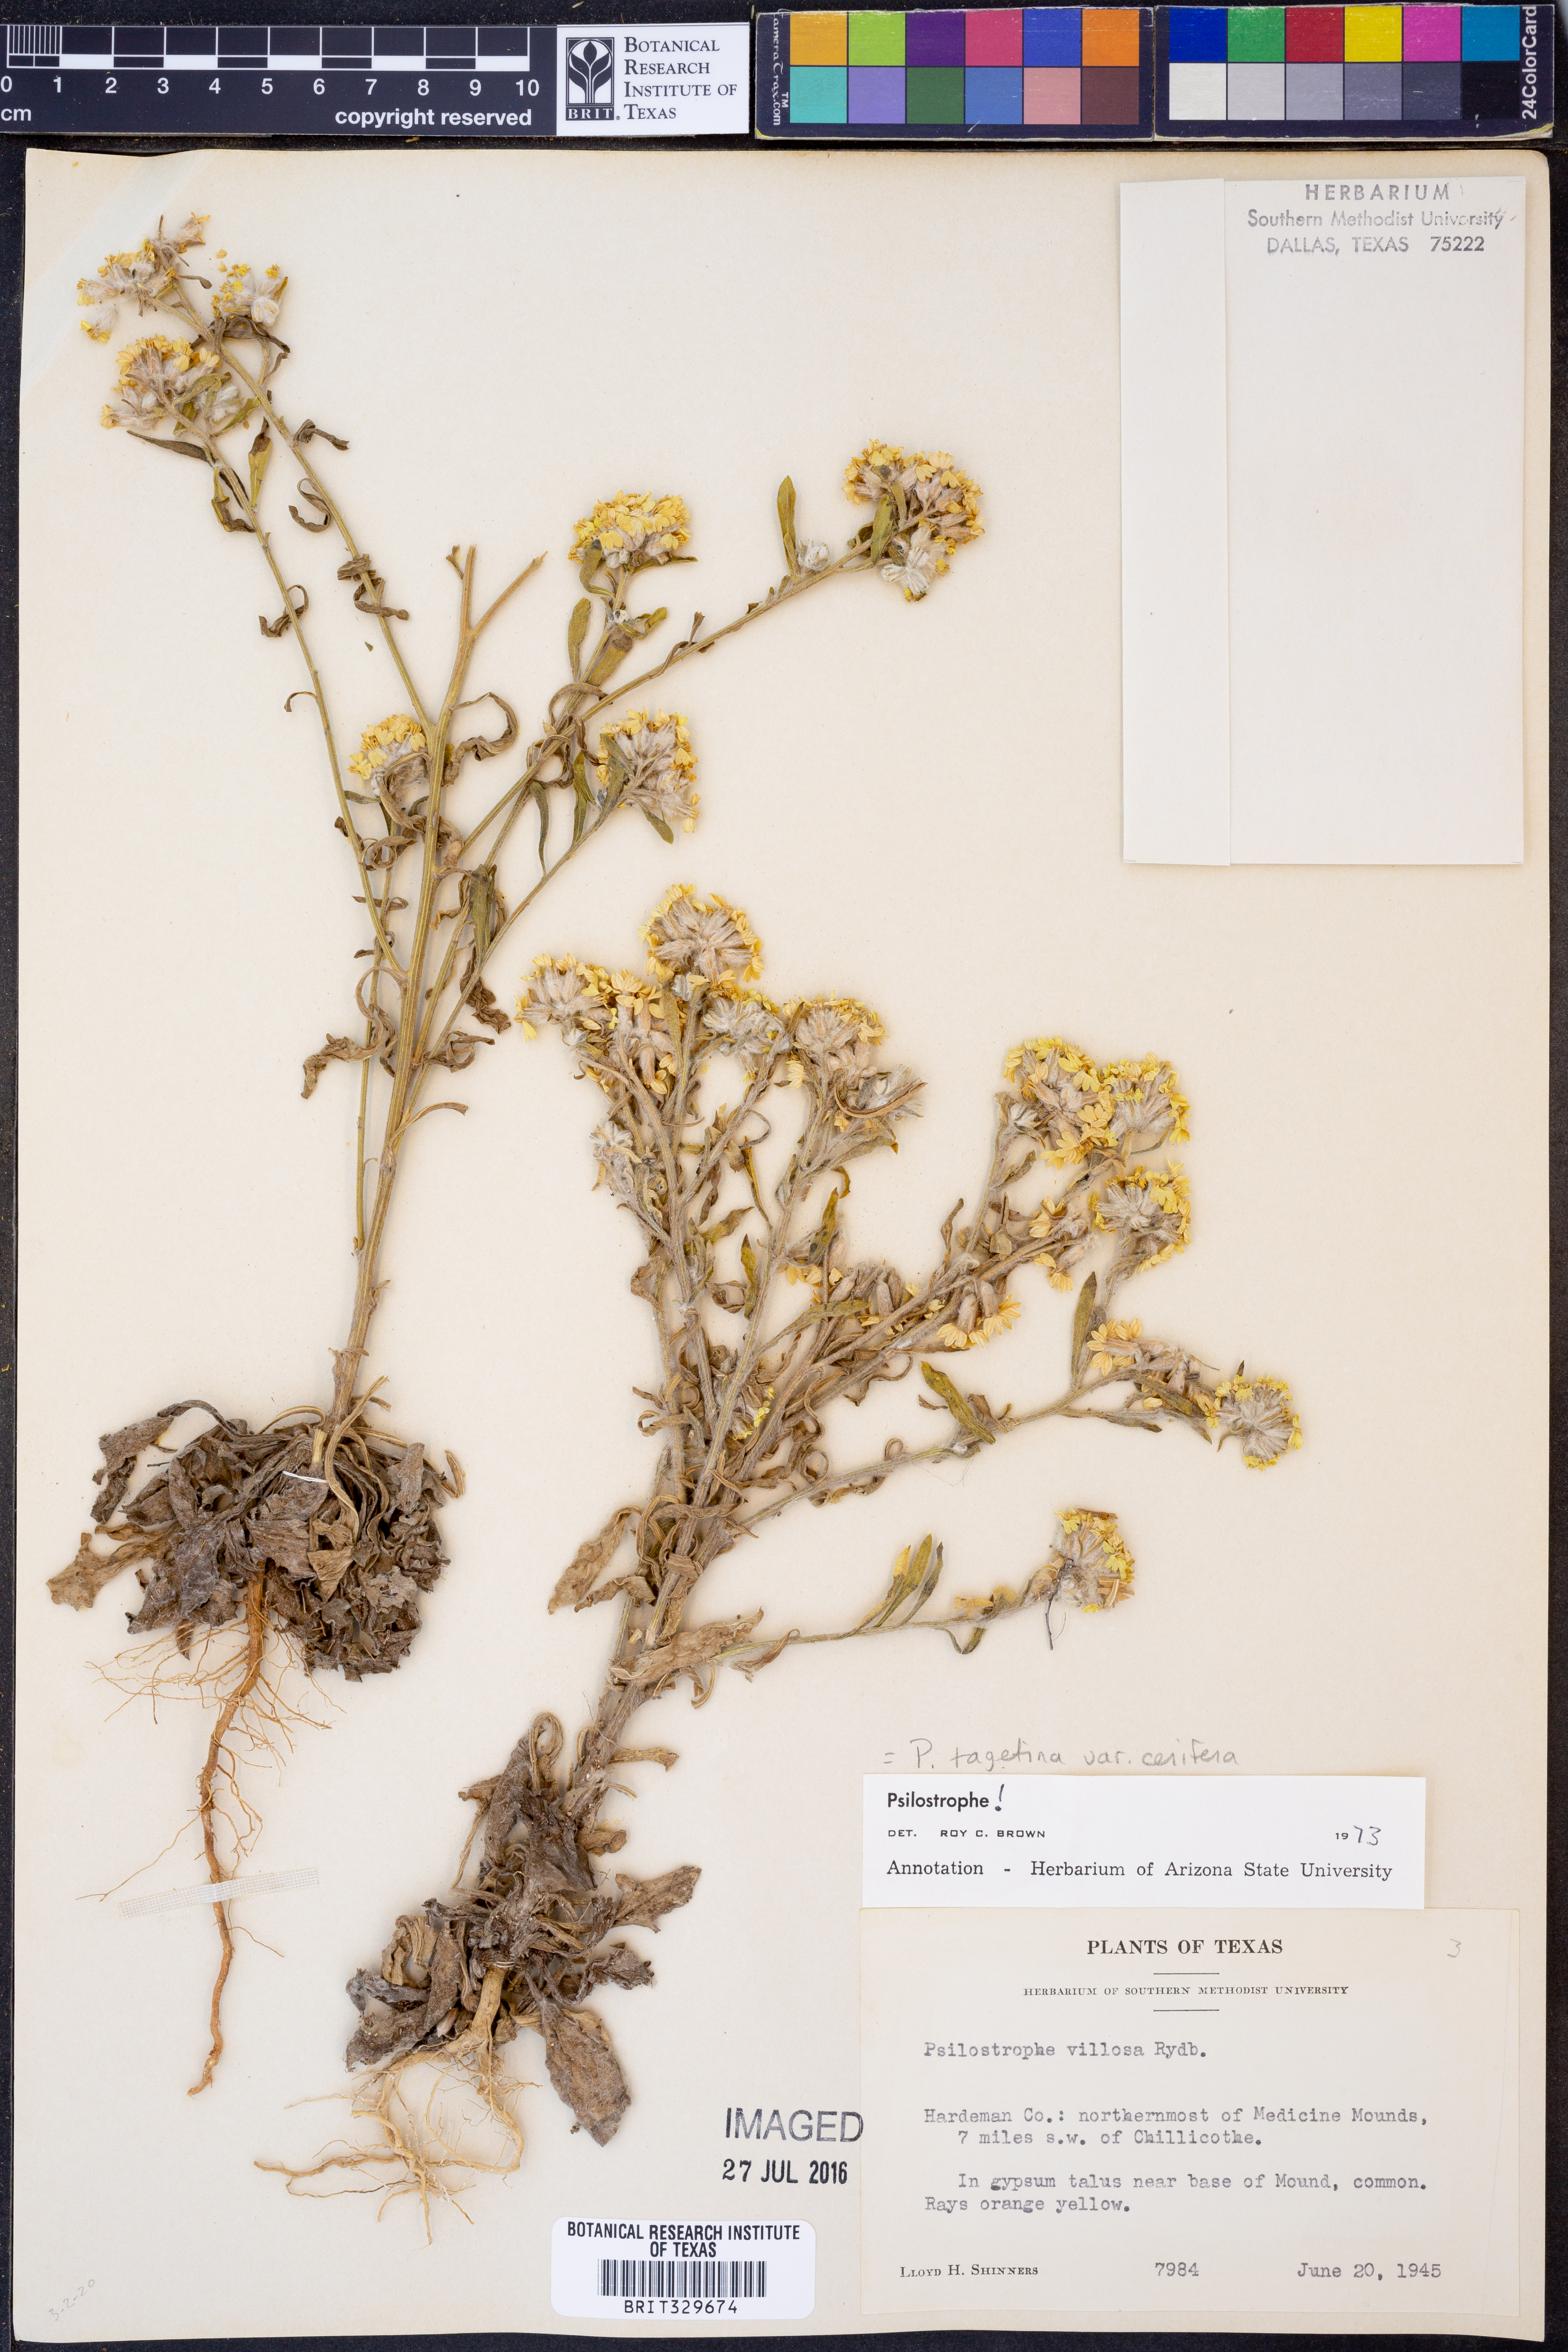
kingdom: Plantae
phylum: Tracheophyta
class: Magnoliopsida
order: Asterales
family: Asteraceae
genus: Psilostrophe
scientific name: Psilostrophe villosa
